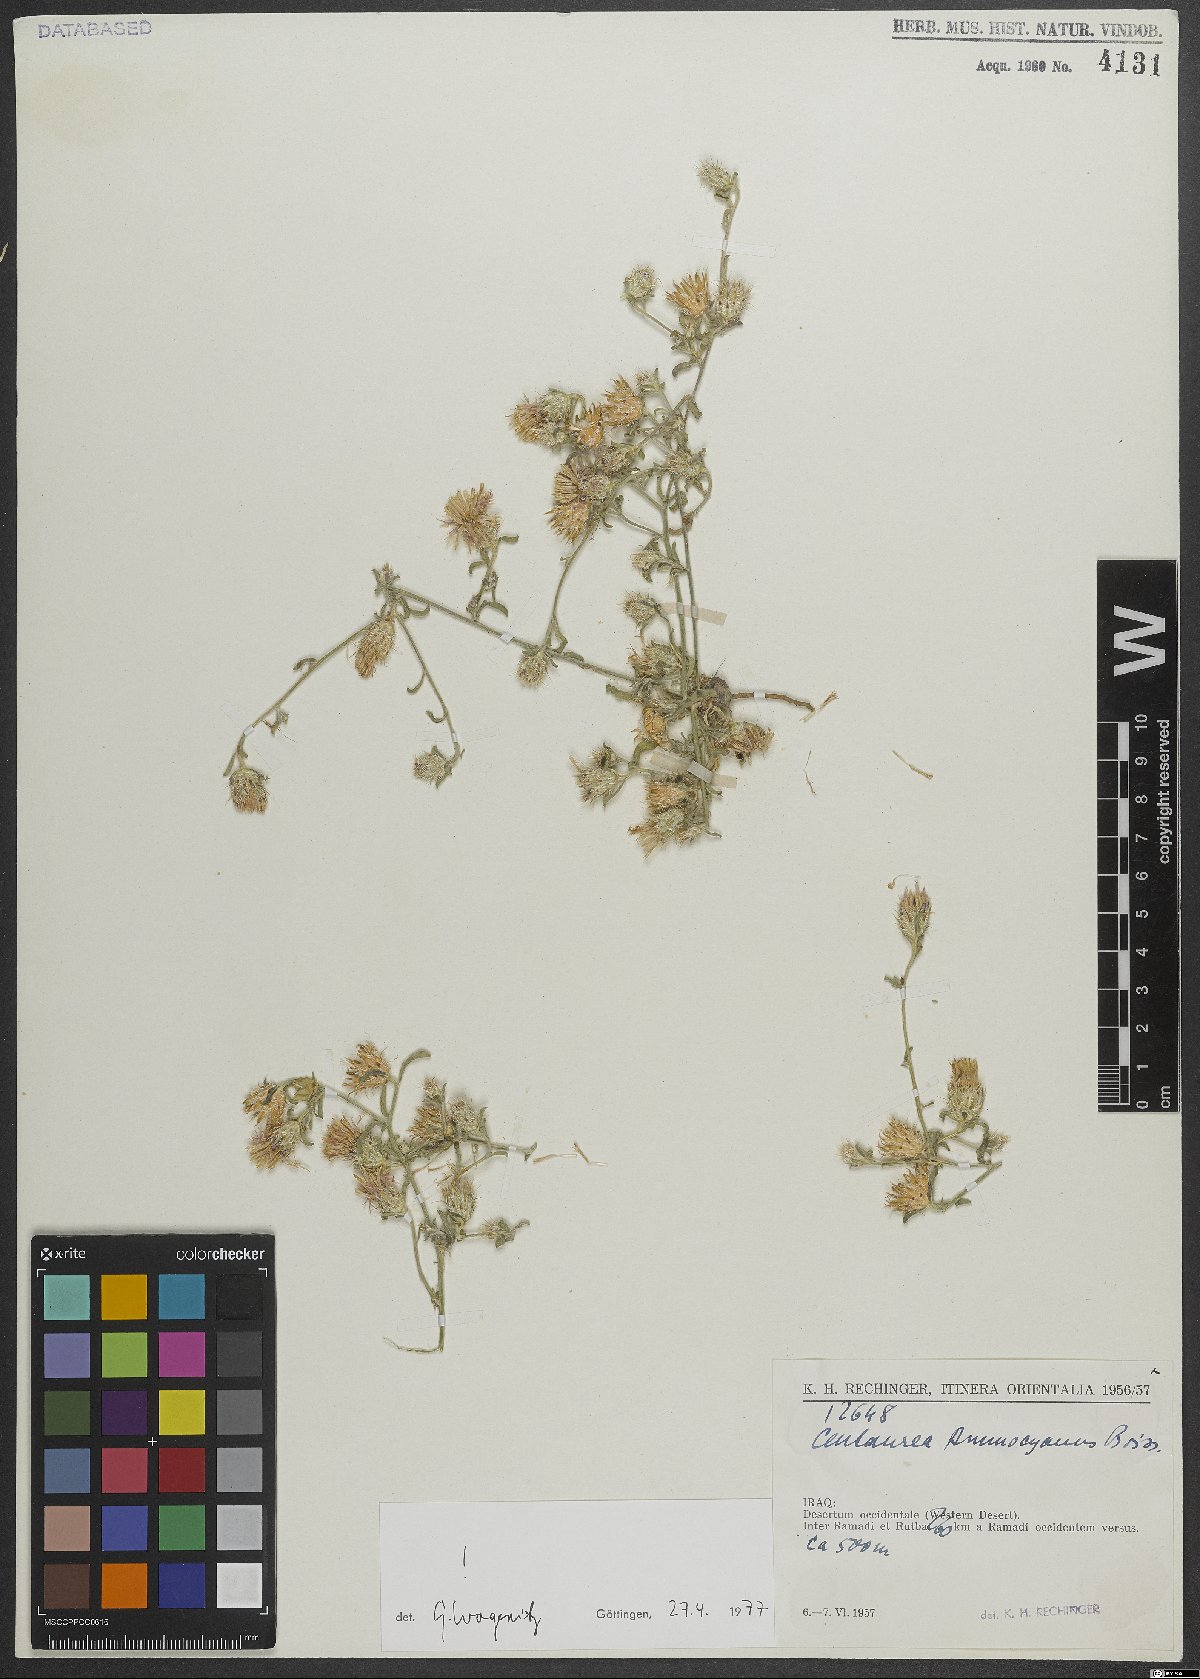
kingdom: Plantae
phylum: Tracheophyta
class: Magnoliopsida
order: Asterales
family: Asteraceae
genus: Centaurea
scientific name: Centaurea ammocyanus
